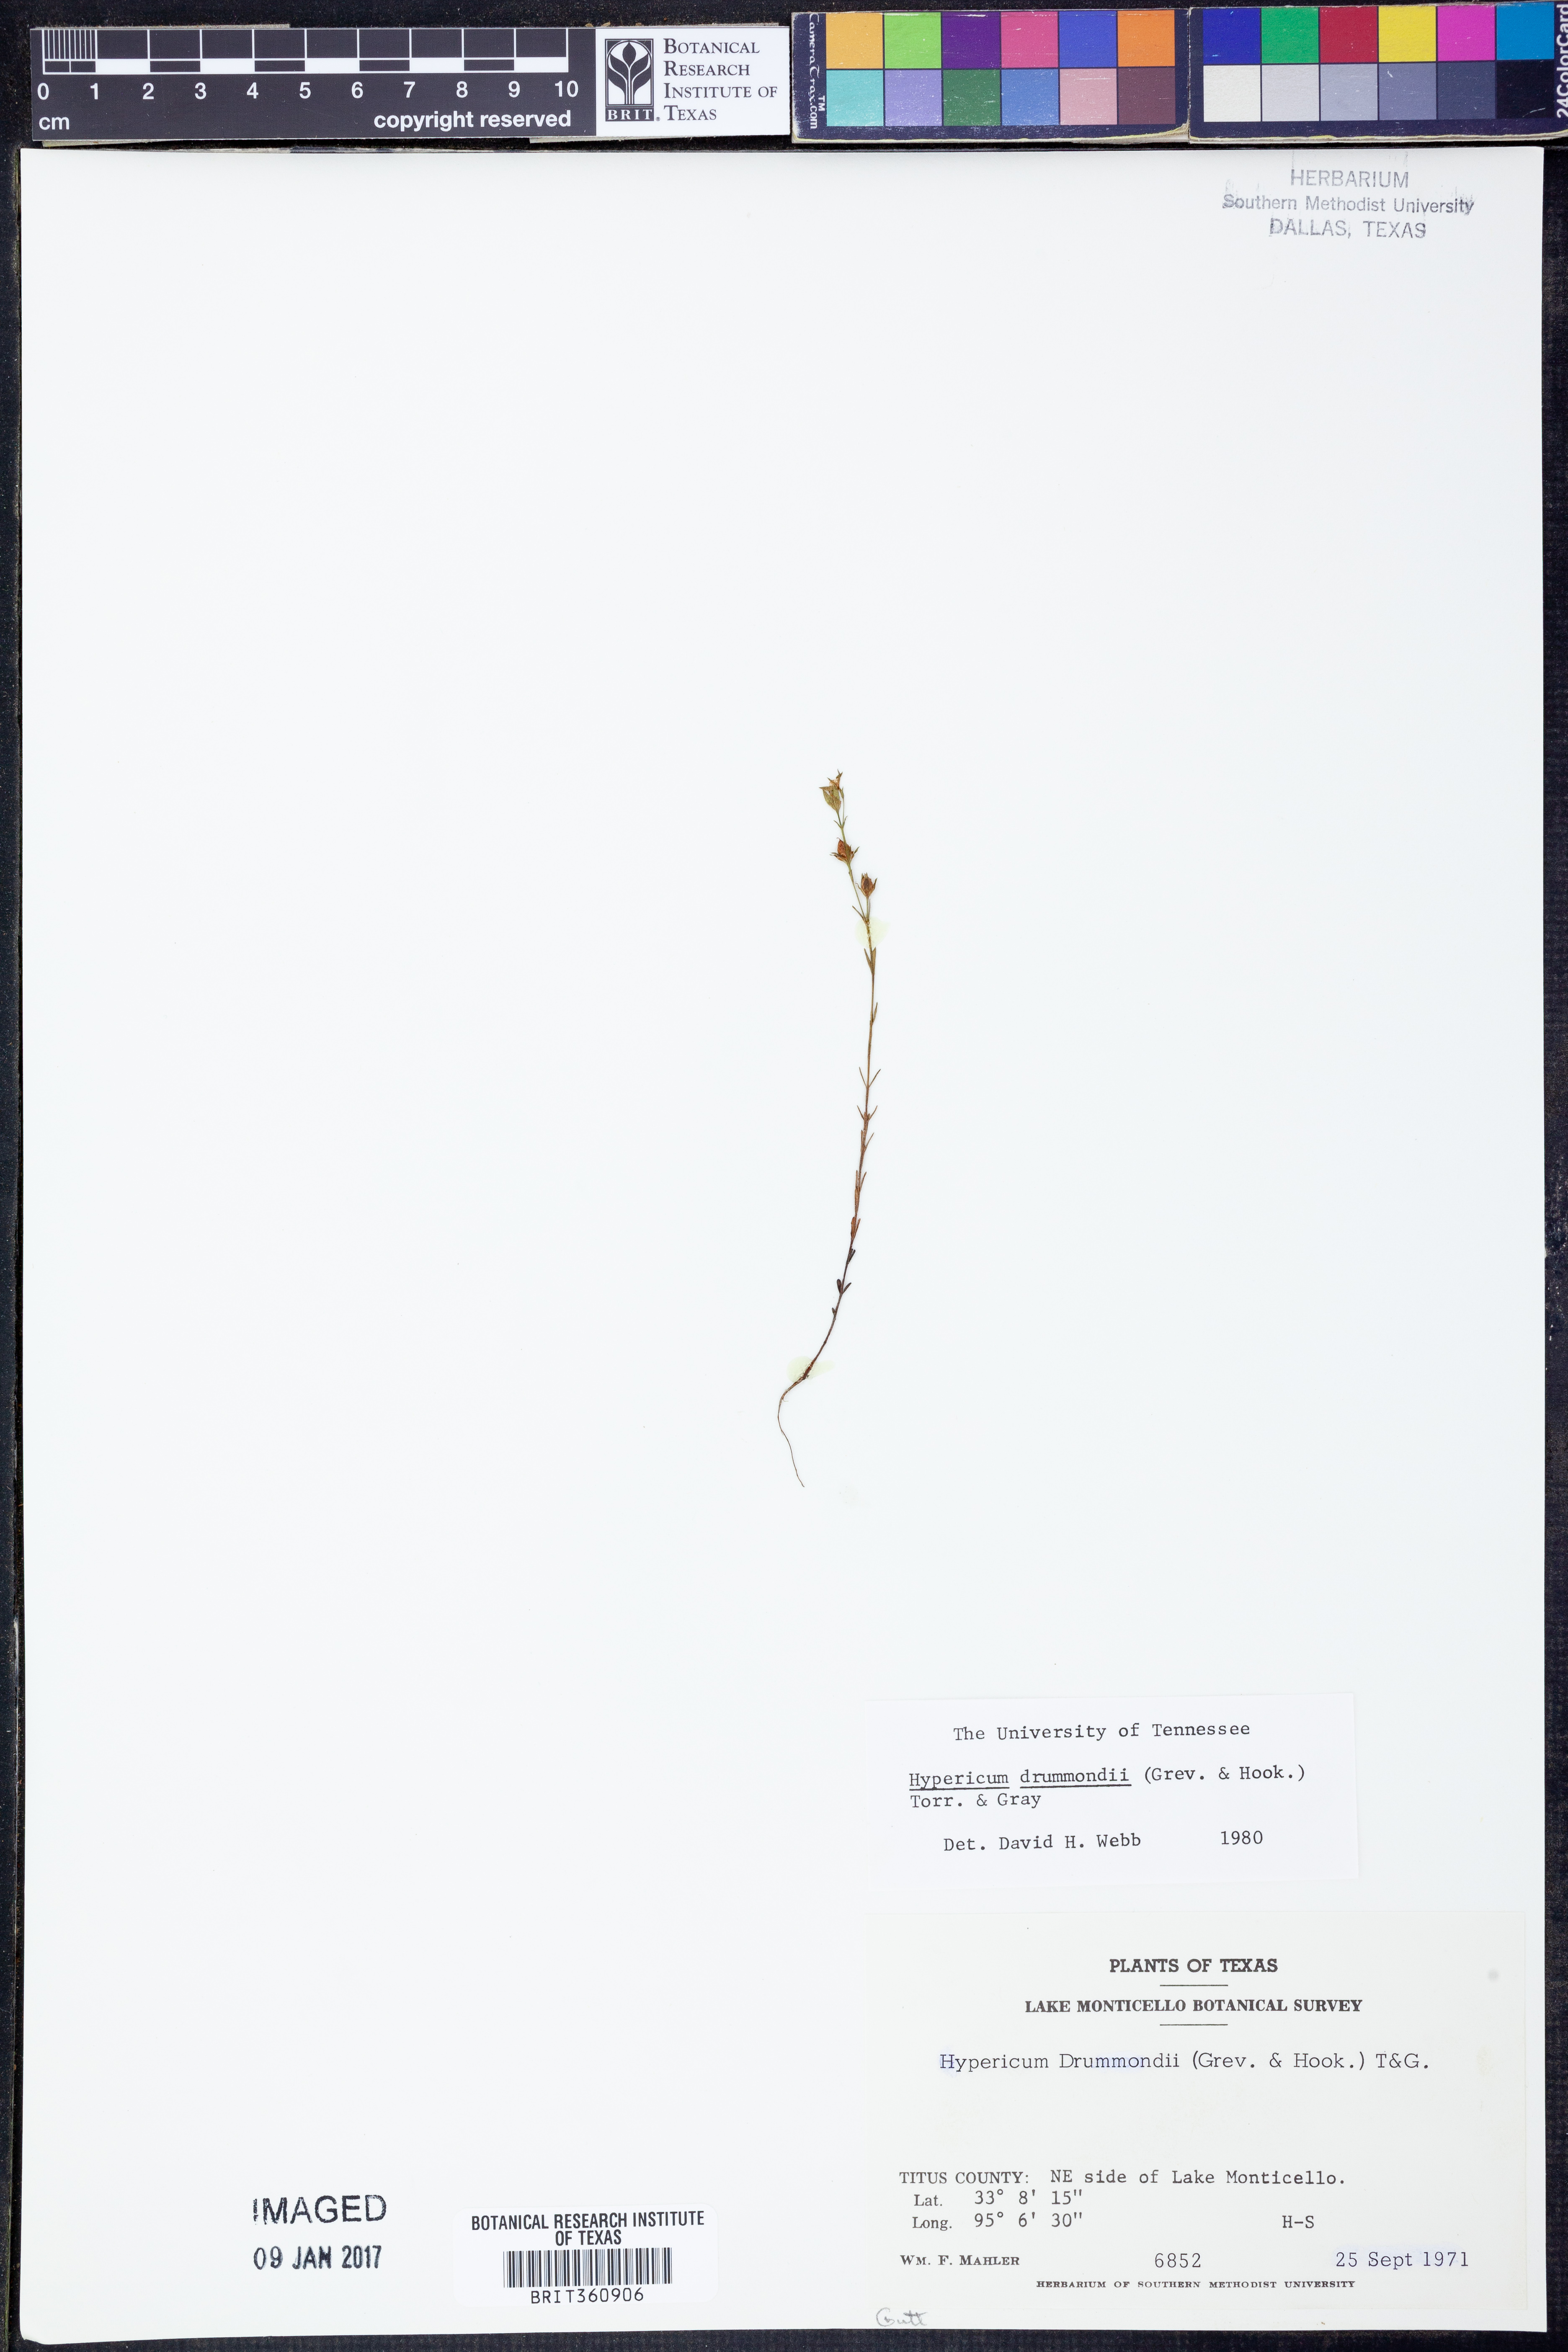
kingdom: Plantae
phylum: Tracheophyta
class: Magnoliopsida
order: Malpighiales
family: Hypericaceae
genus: Hypericum
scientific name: Hypericum drummondii
